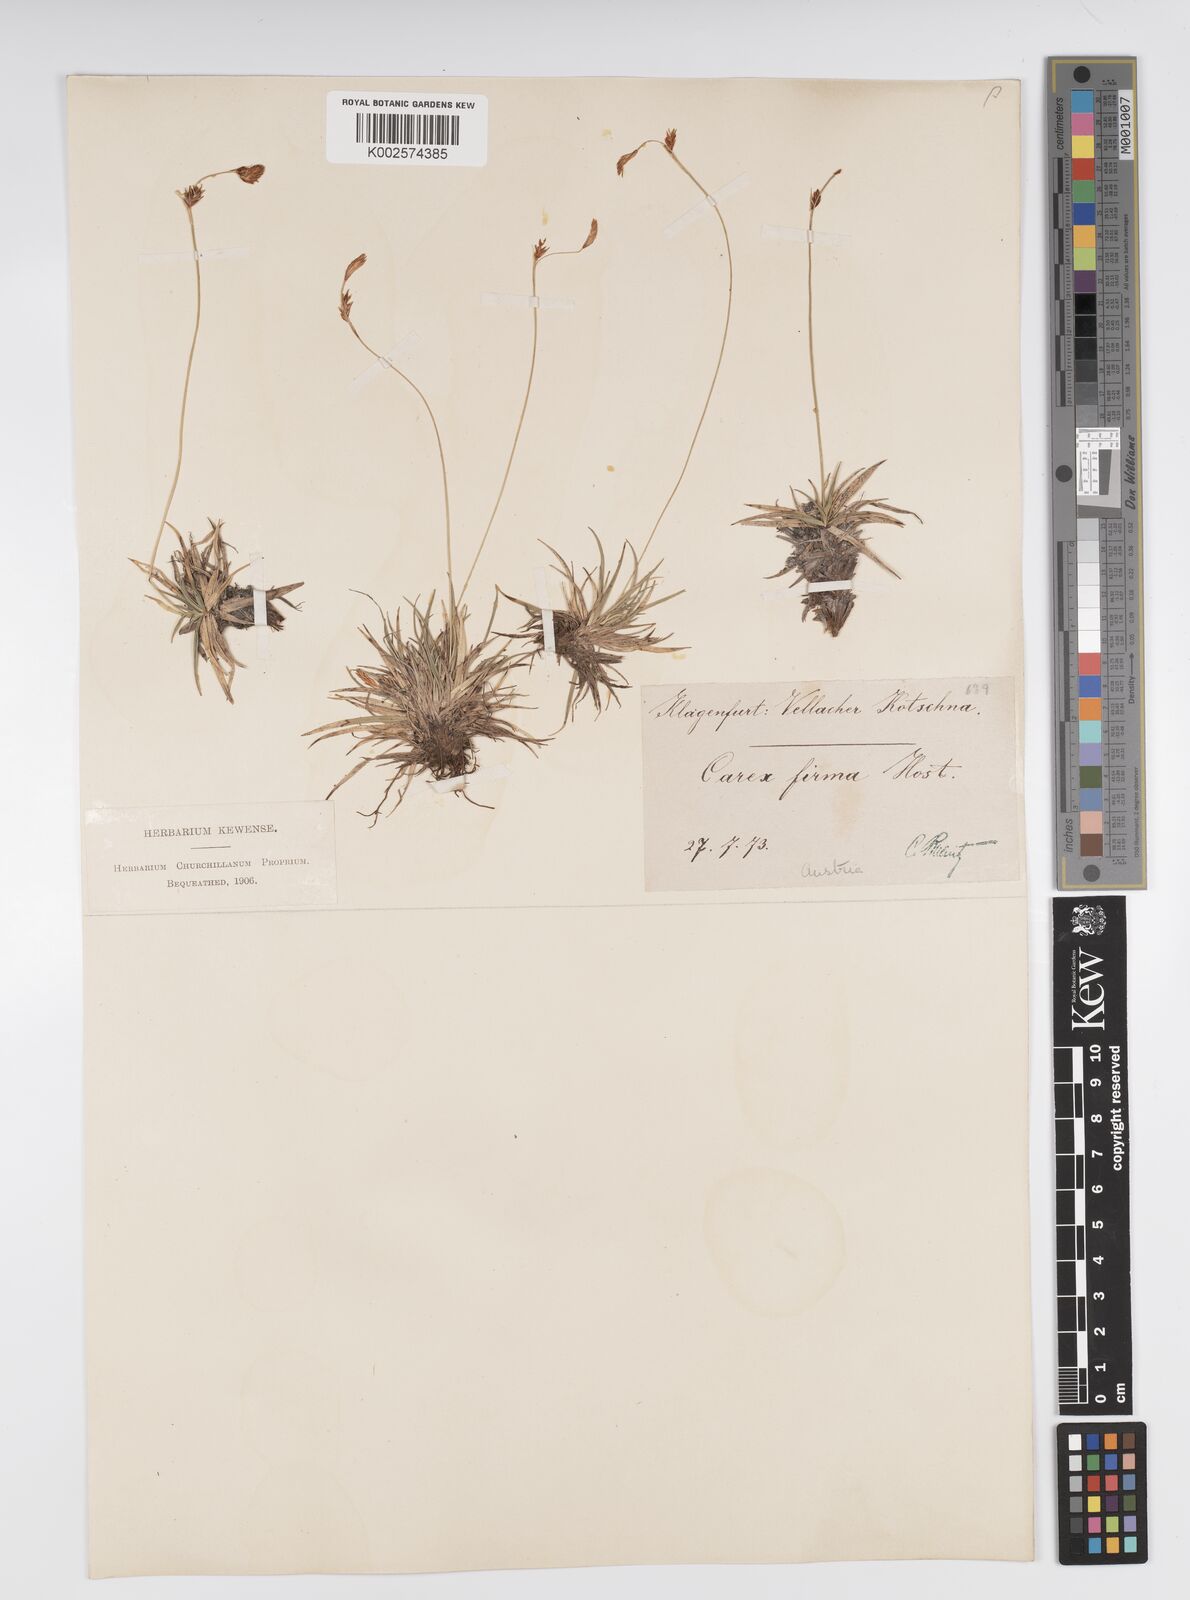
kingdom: Plantae
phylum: Tracheophyta
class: Liliopsida
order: Poales
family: Cyperaceae
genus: Carex
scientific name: Carex firma
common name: Dwarf pillow sedge
